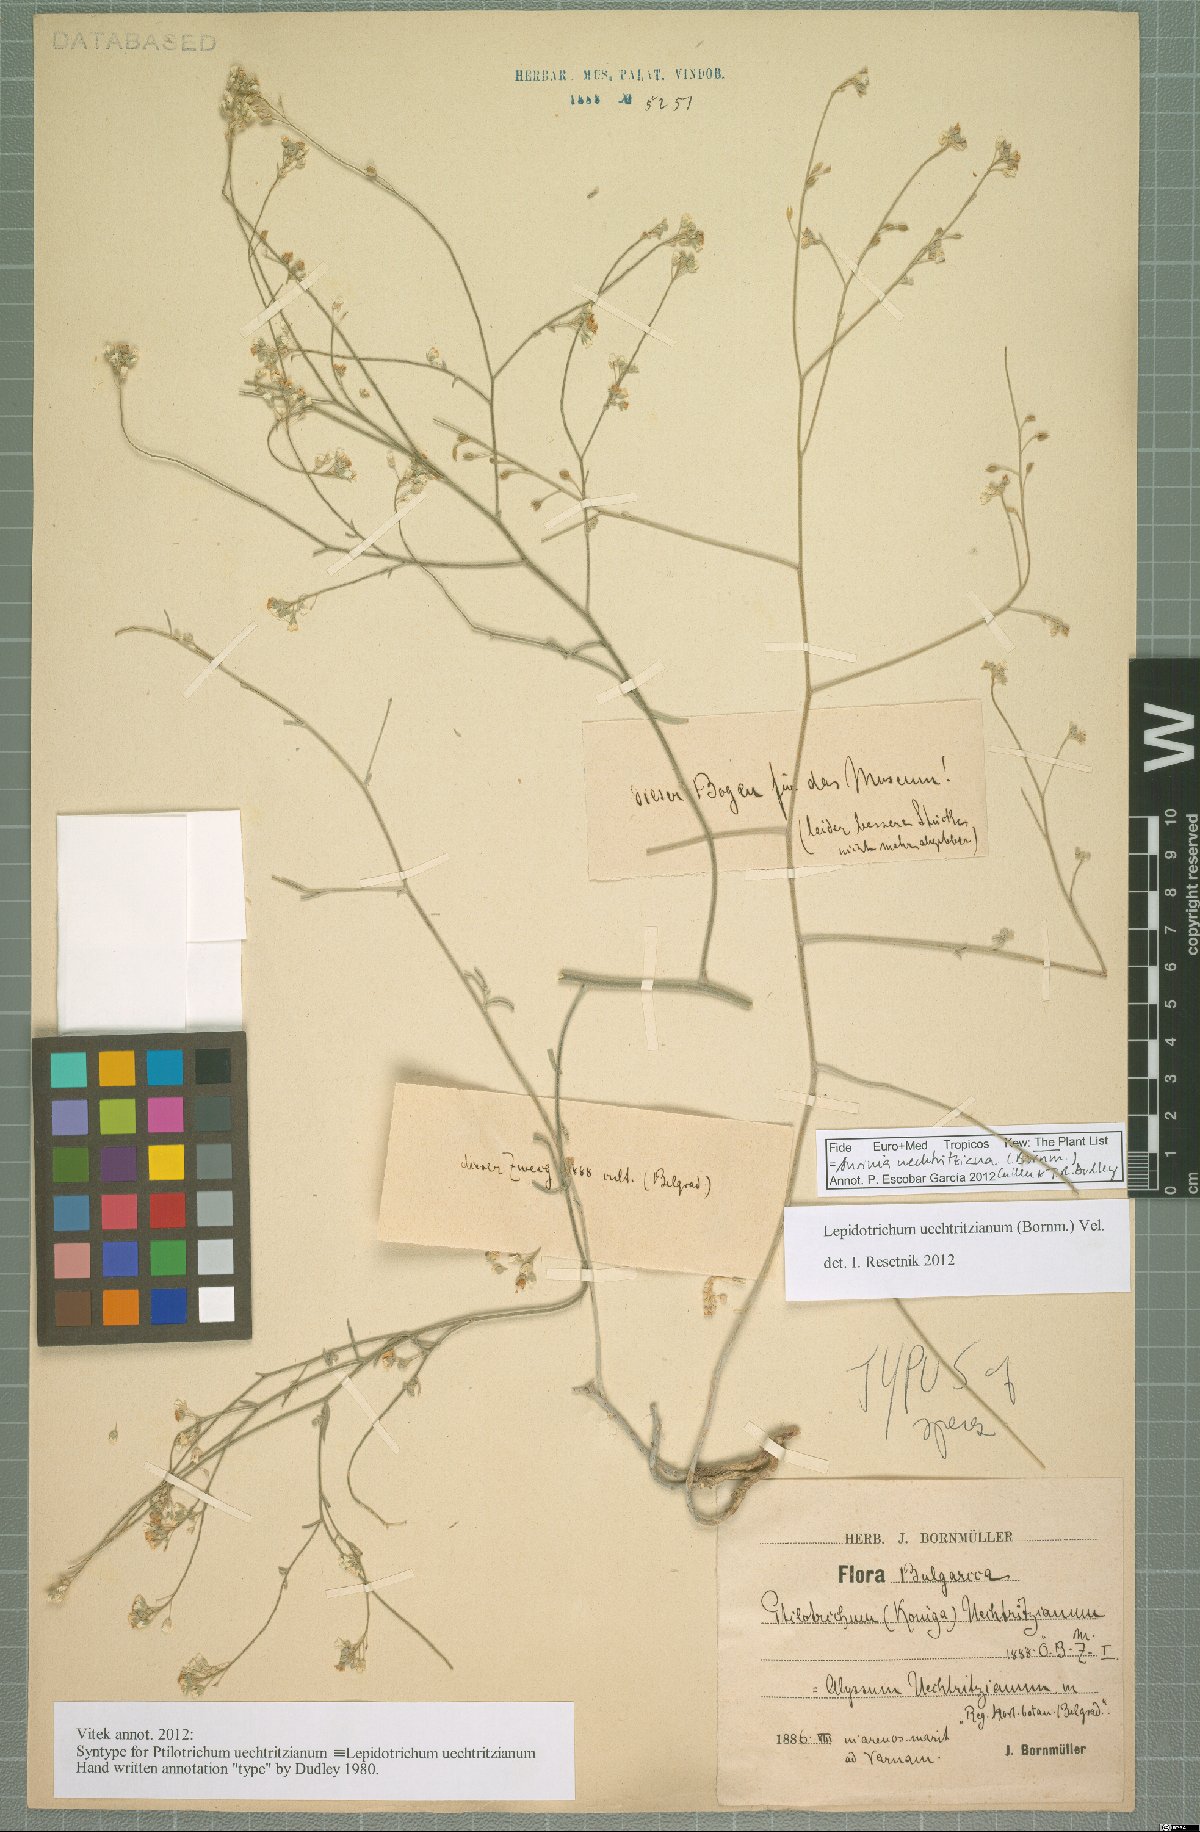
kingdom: Plantae
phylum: Tracheophyta
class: Magnoliopsida
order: Brassicales
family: Brassicaceae
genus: Lepidotrichum
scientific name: Lepidotrichum uechtritzianum
